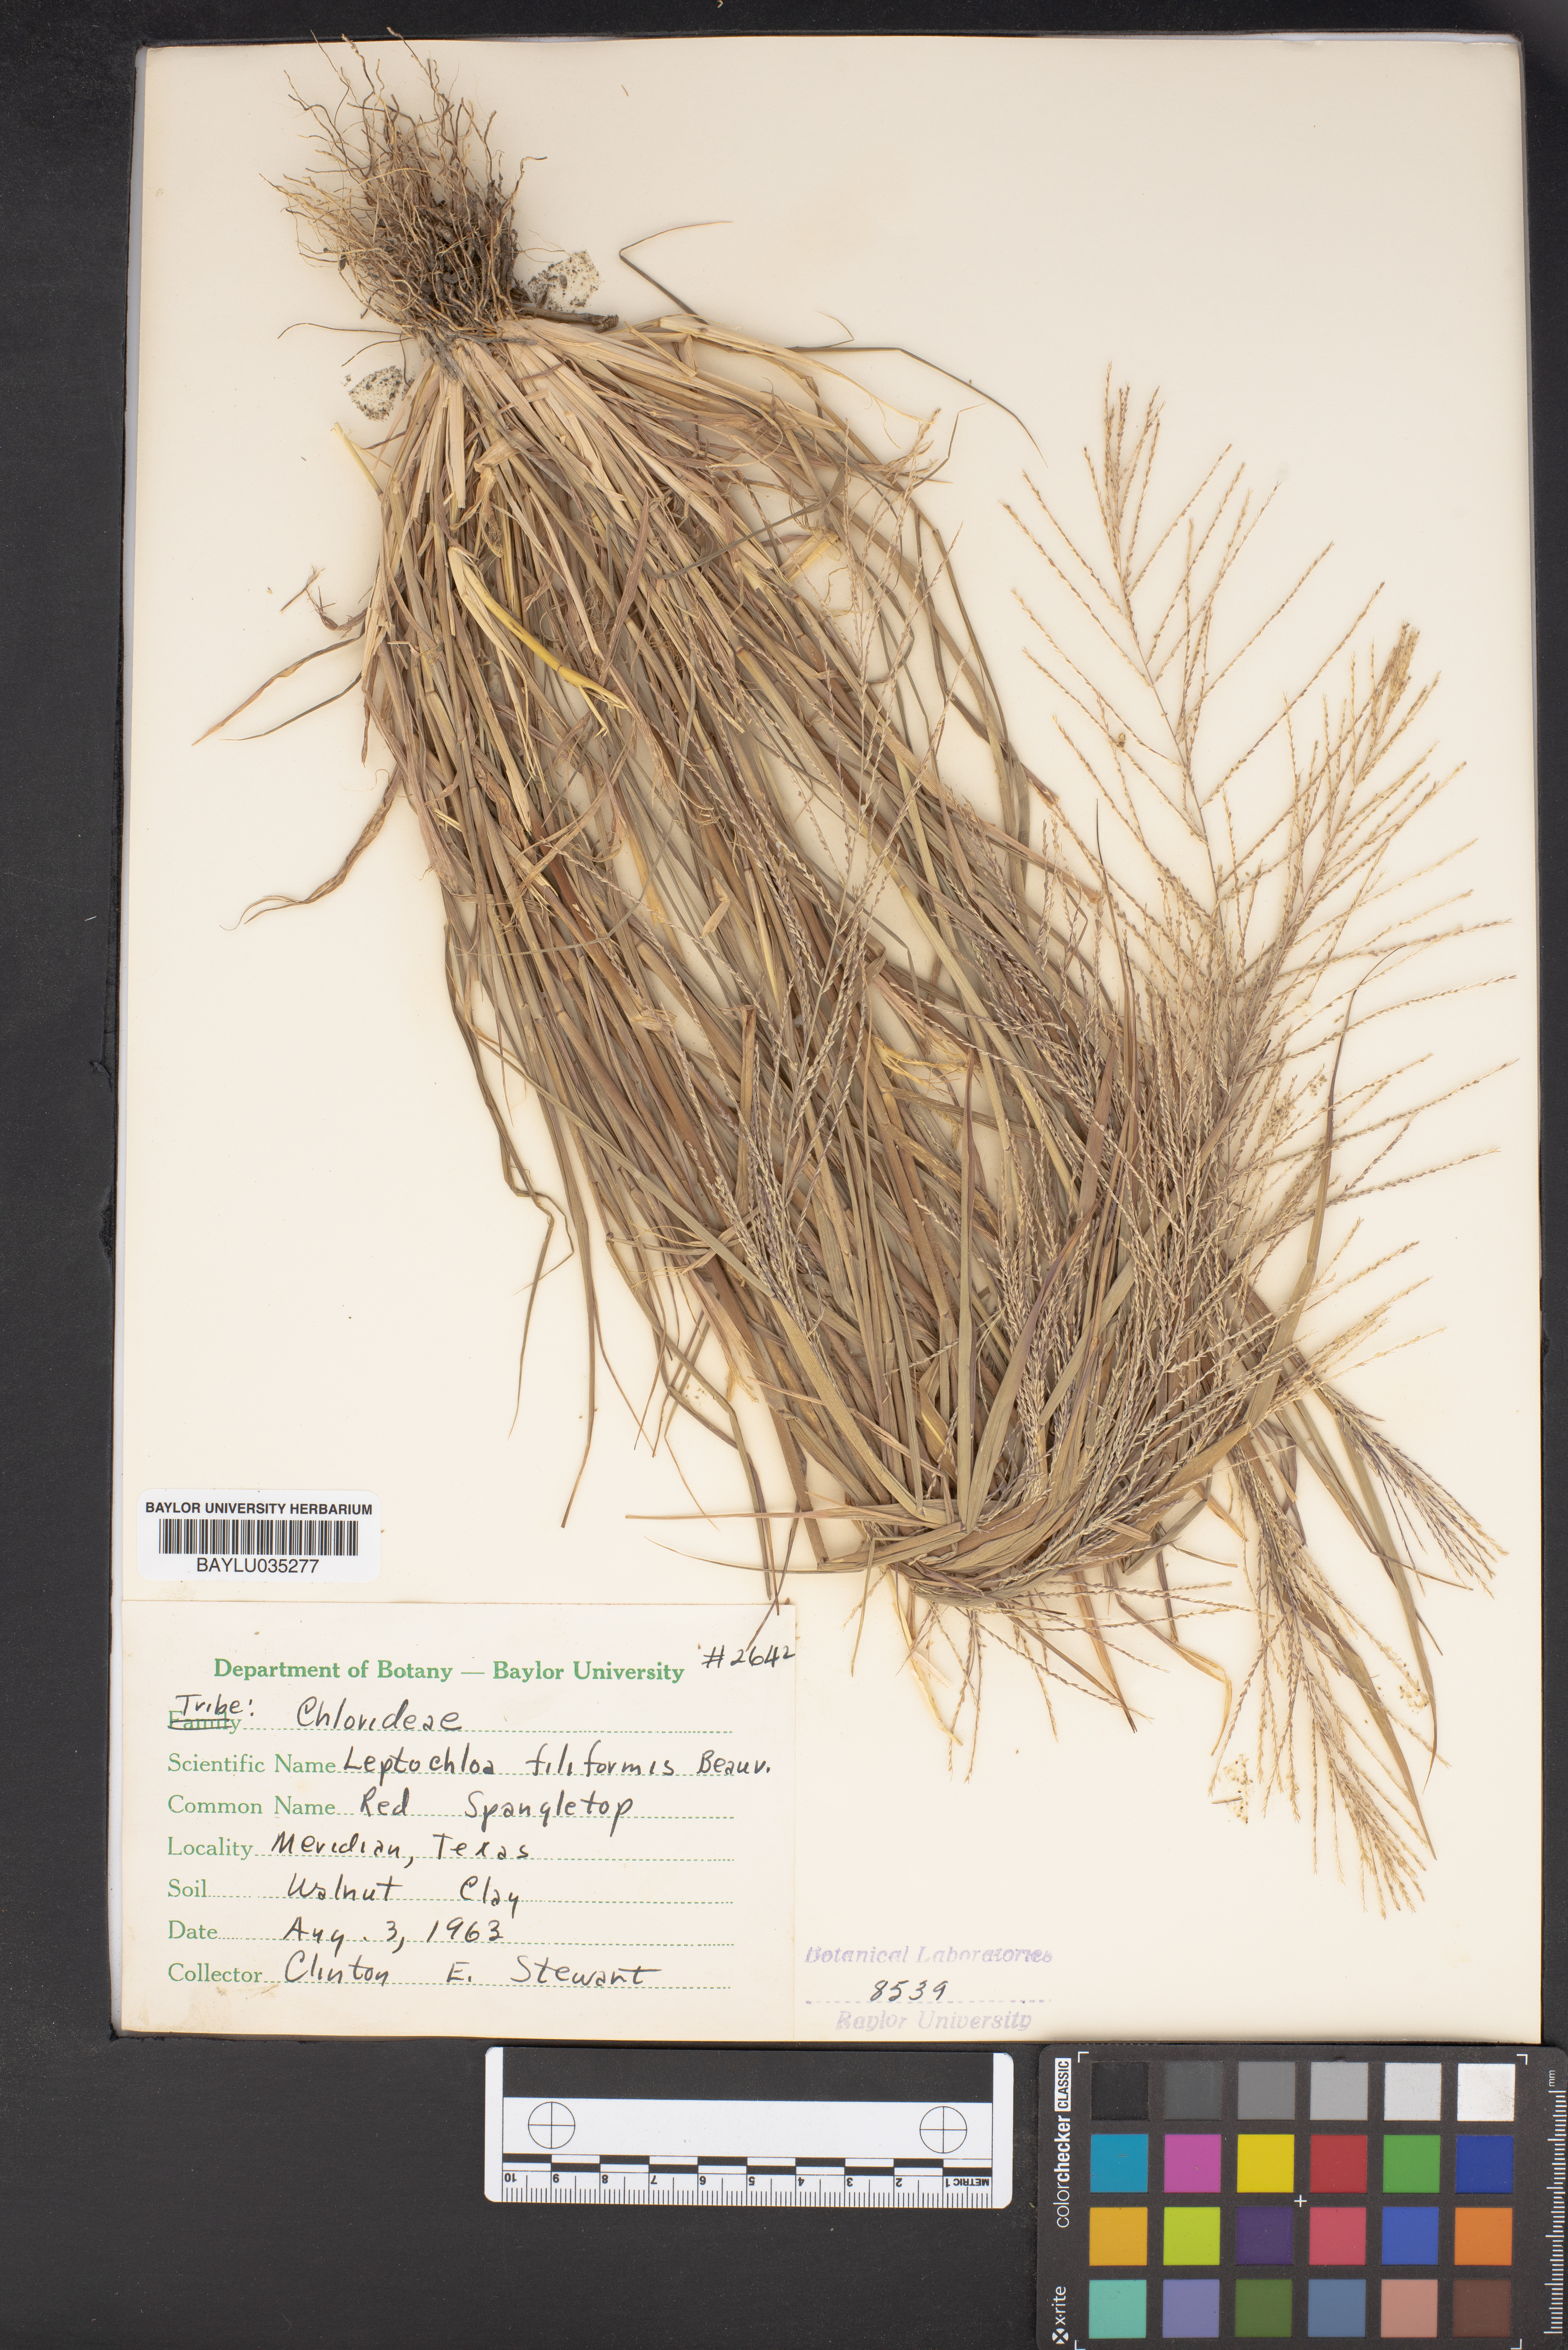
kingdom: Plantae
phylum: Tracheophyta
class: Liliopsida
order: Poales
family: Poaceae
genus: Leptochloa
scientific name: Leptochloa mucronata
